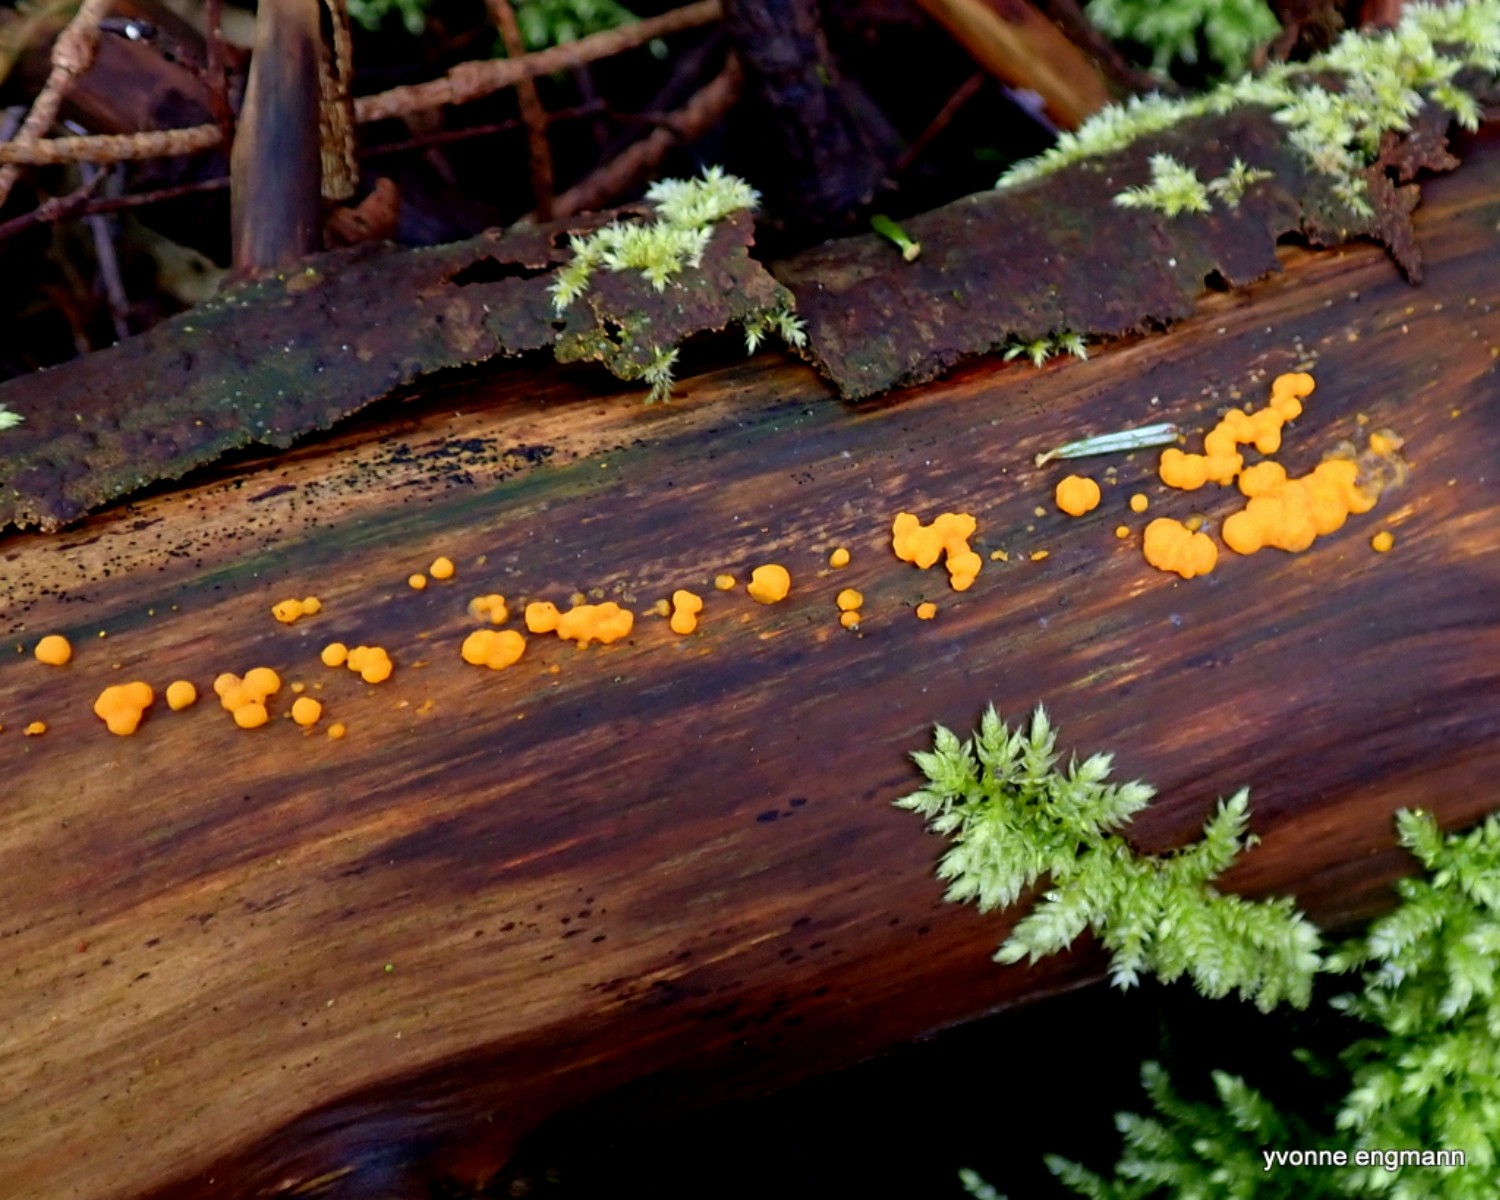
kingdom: Fungi
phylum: Basidiomycota
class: Dacrymycetes
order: Dacrymycetales
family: Dacrymycetaceae
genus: Dacrymyces
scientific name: Dacrymyces stillatus
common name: almindelig tåresvamp
